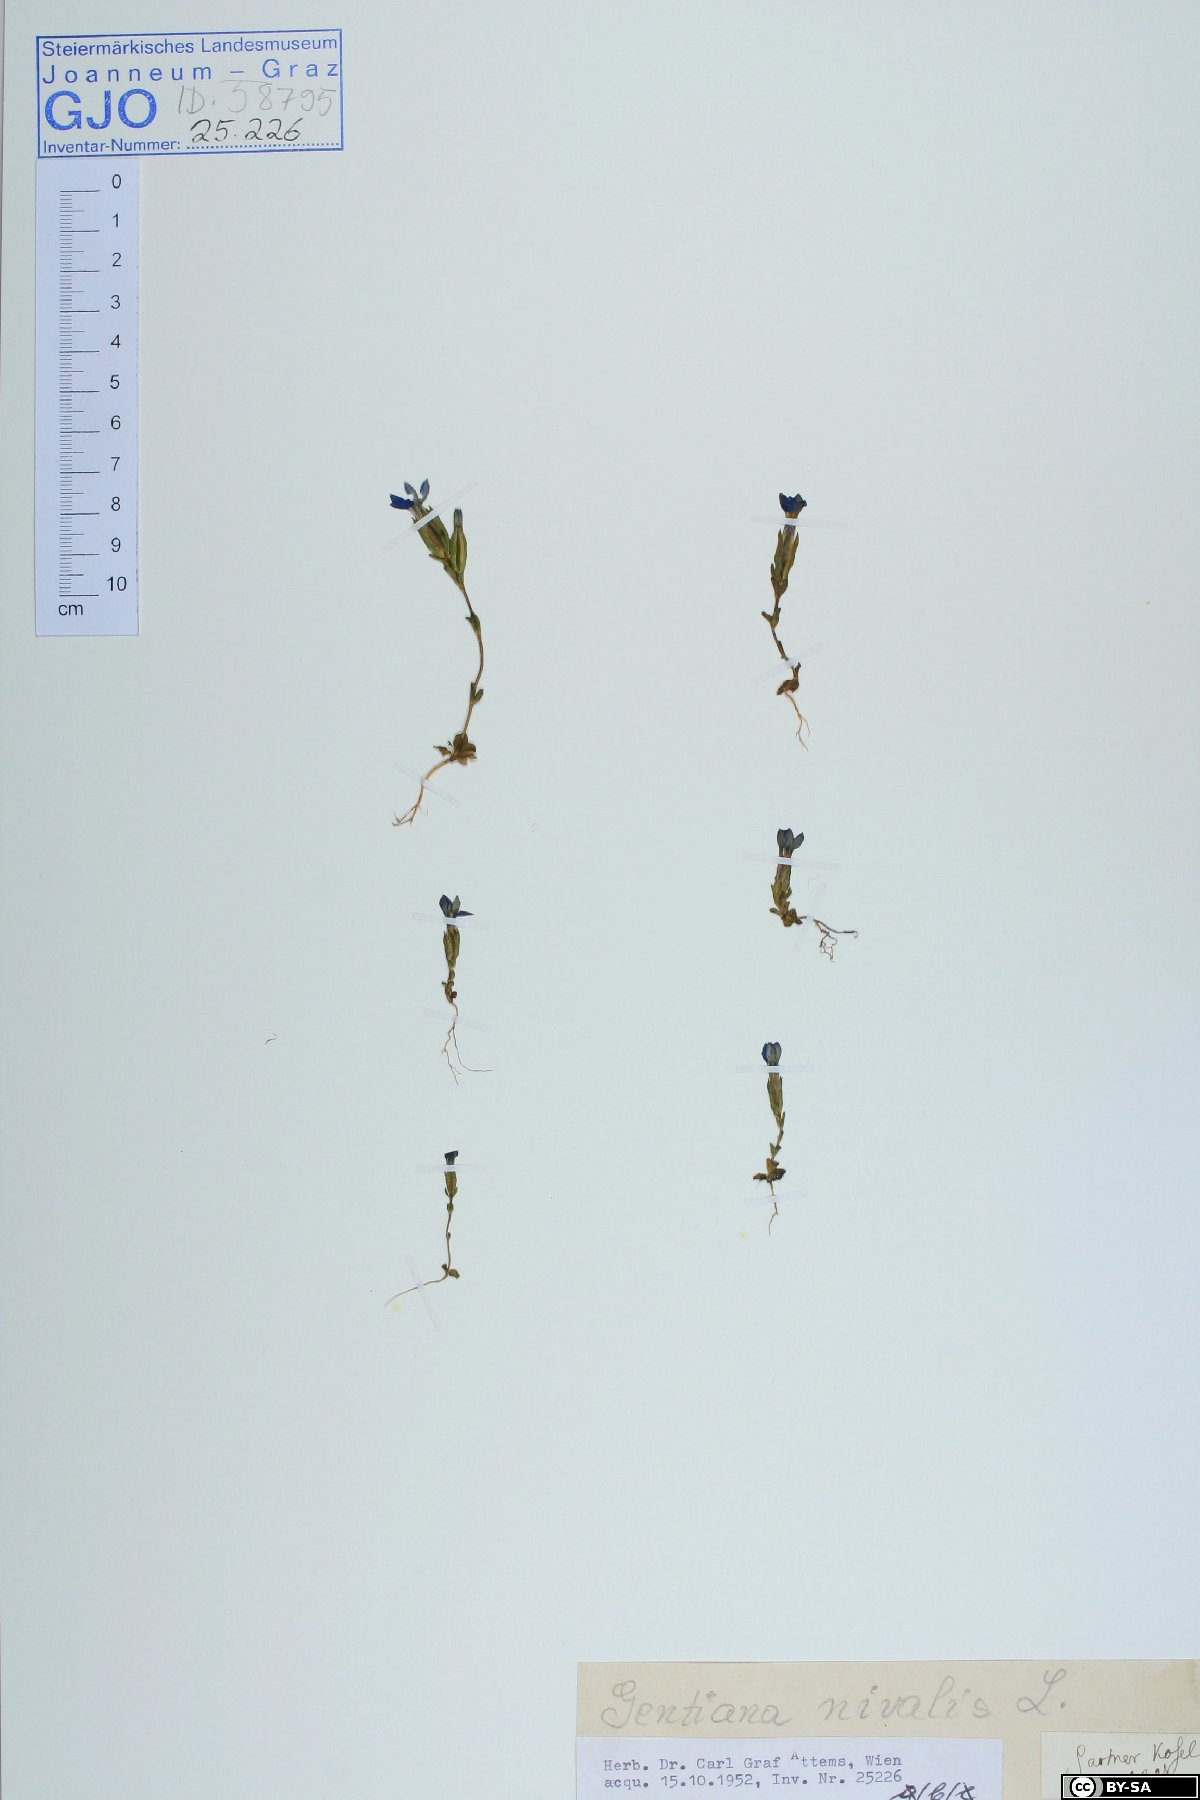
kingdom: Plantae
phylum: Tracheophyta
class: Magnoliopsida
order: Gentianales
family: Gentianaceae
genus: Gentiana
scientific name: Gentiana nivalis
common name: Alpine gentian
